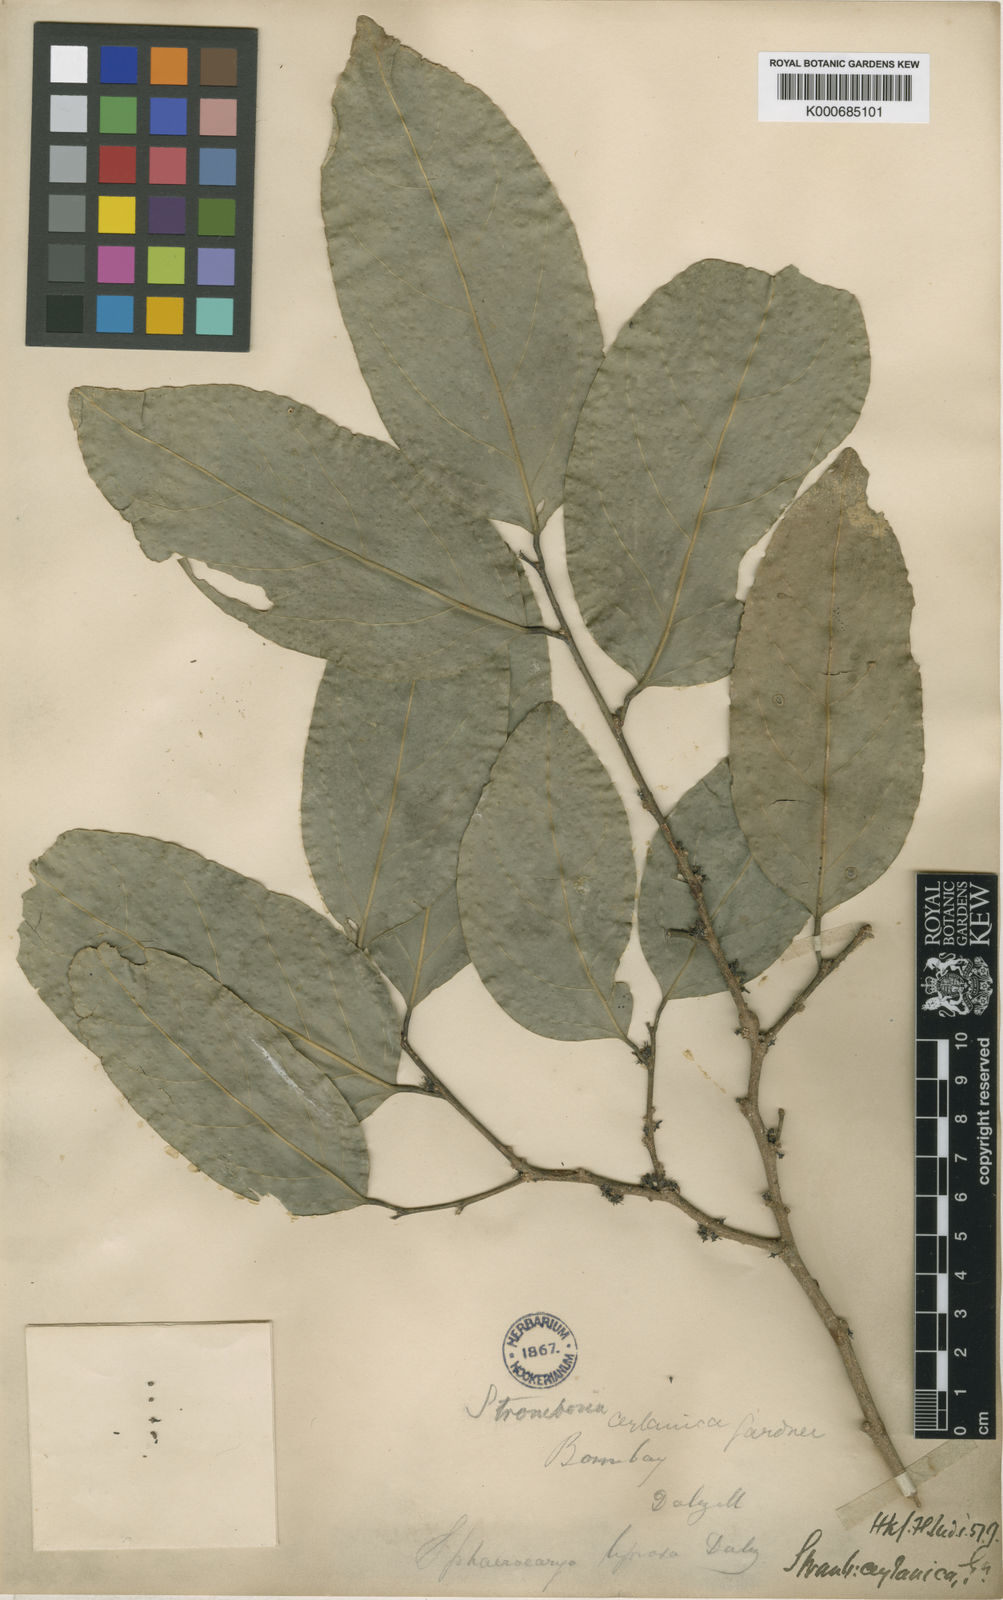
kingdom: Plantae
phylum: Tracheophyta
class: Magnoliopsida
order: Santalales
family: Strombosiaceae
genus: Strombosia
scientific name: Strombosia ceylanica
